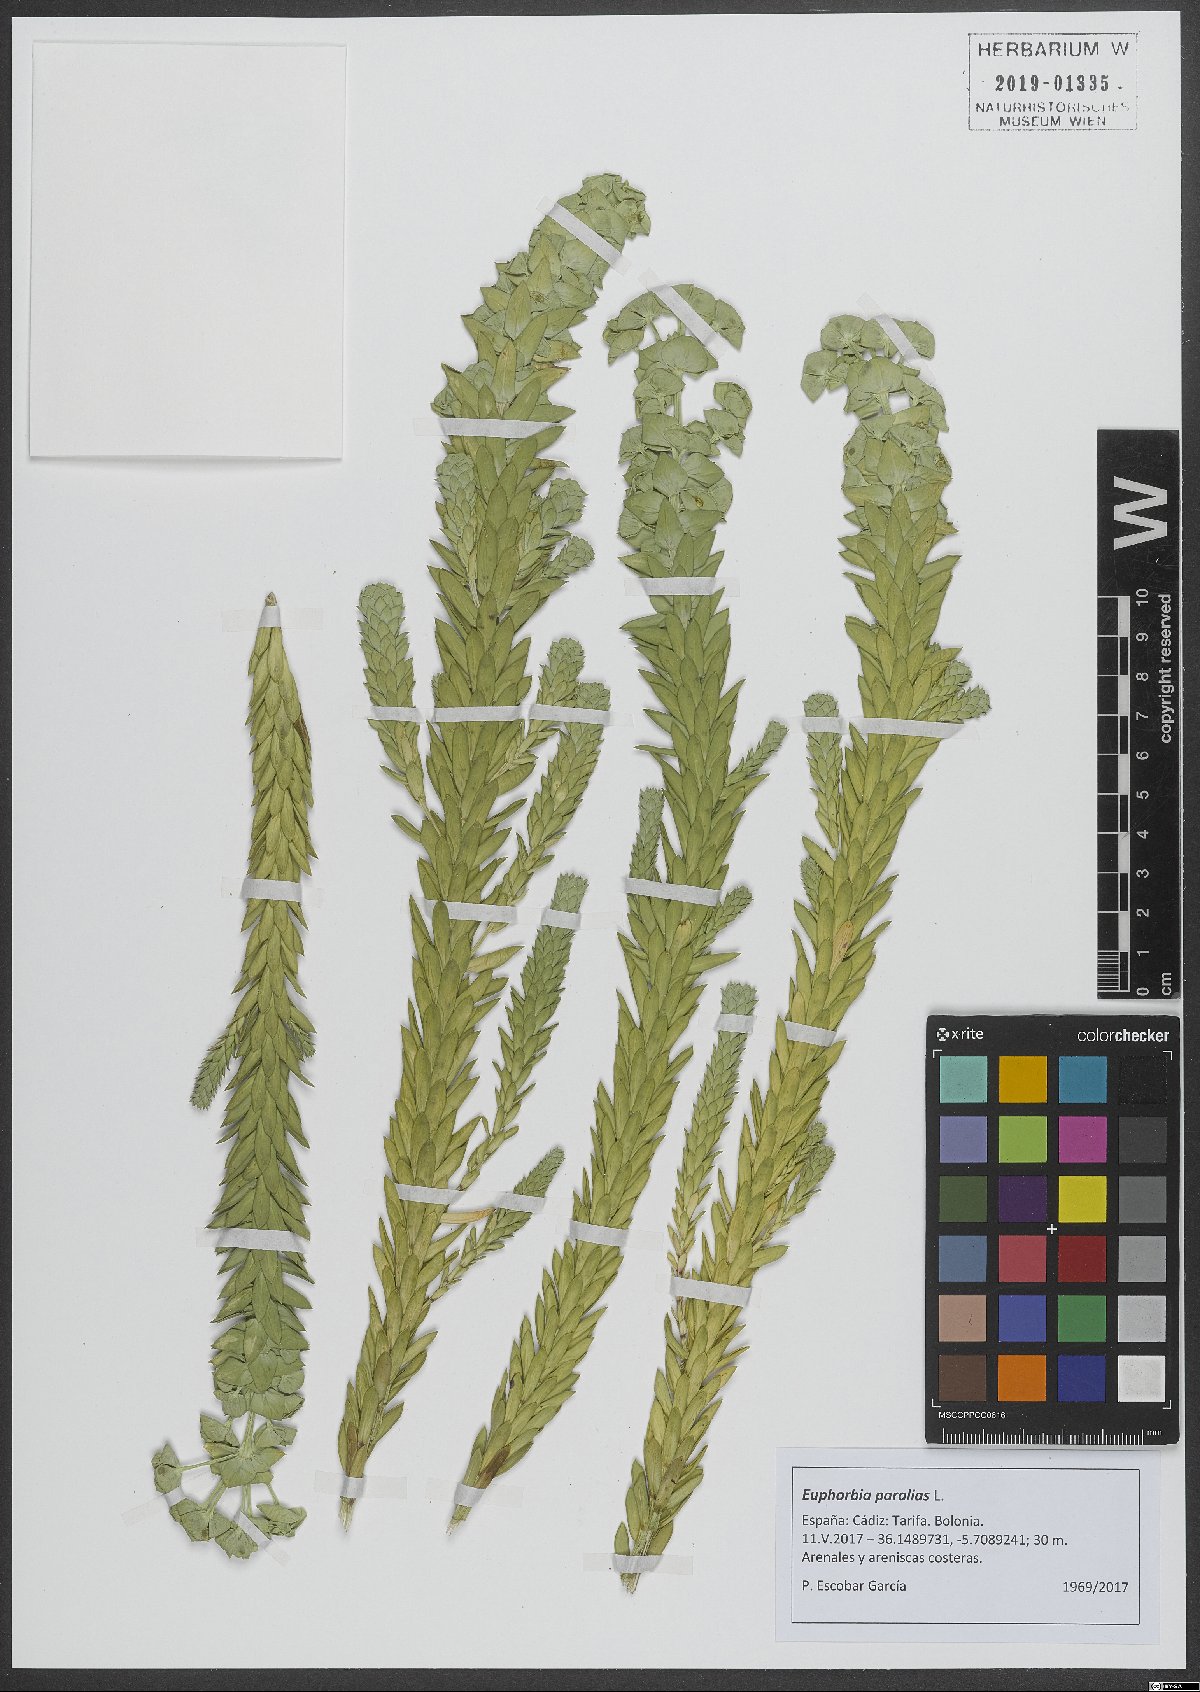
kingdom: Plantae
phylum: Tracheophyta
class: Magnoliopsida
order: Malpighiales
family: Euphorbiaceae
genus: Euphorbia
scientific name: Euphorbia paralias
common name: Sea spurge
